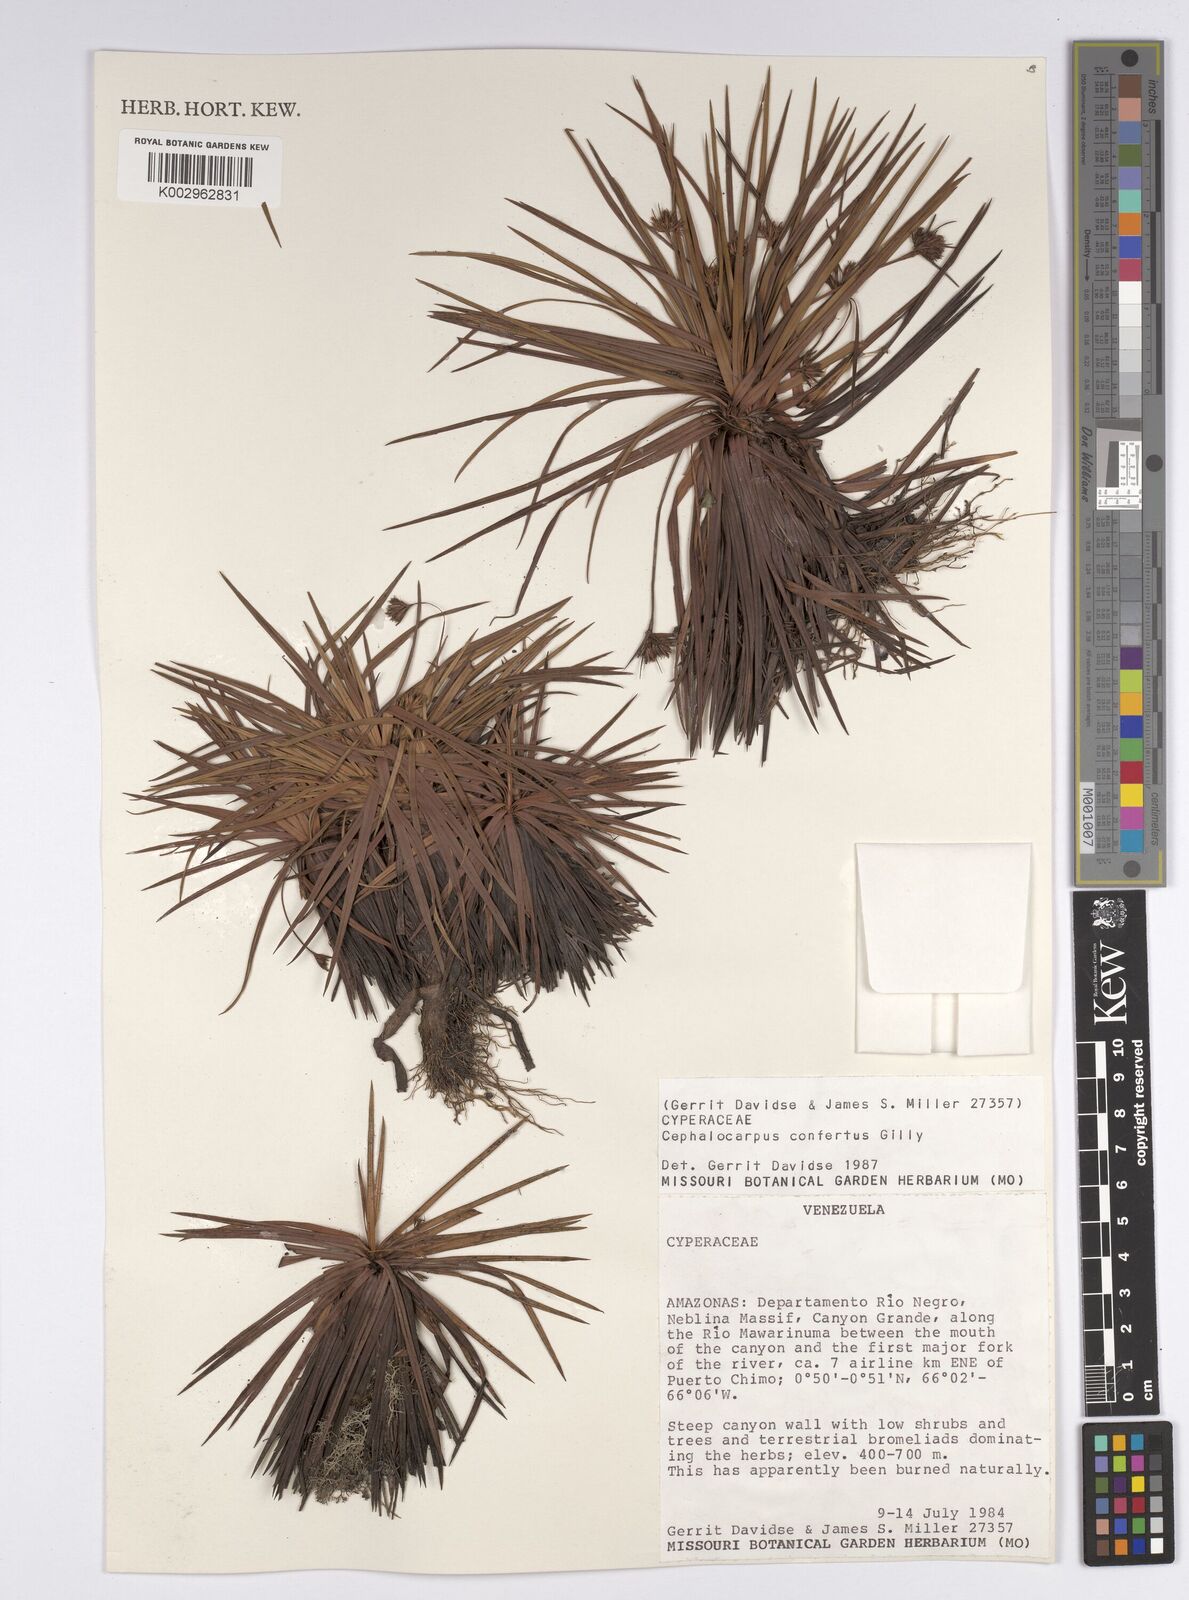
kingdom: Plantae
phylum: Tracheophyta
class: Liliopsida
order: Poales
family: Cyperaceae
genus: Cephalocarpus
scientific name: Cephalocarpus confertus
